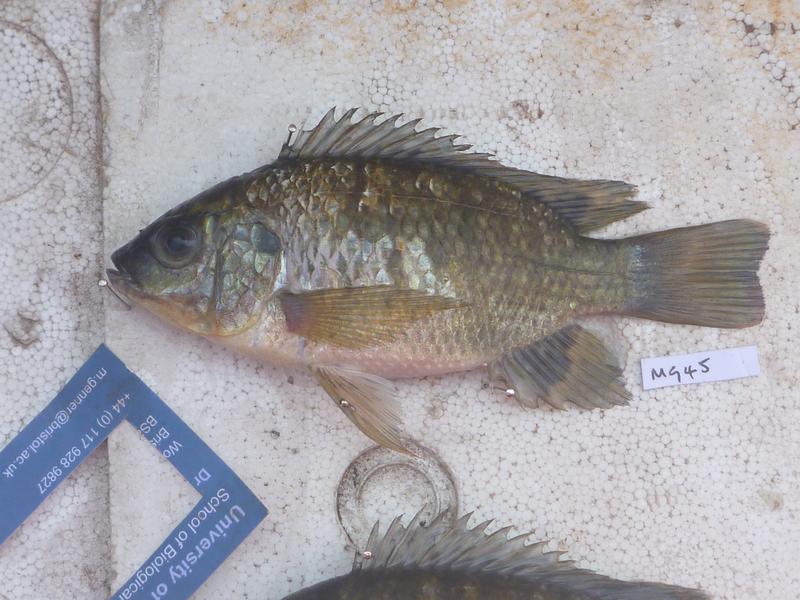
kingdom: Animalia
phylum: Chordata
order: Perciformes
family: Cichlidae
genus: Oreochromis
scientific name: Oreochromis leucostictus
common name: Blue spotted tilapia
